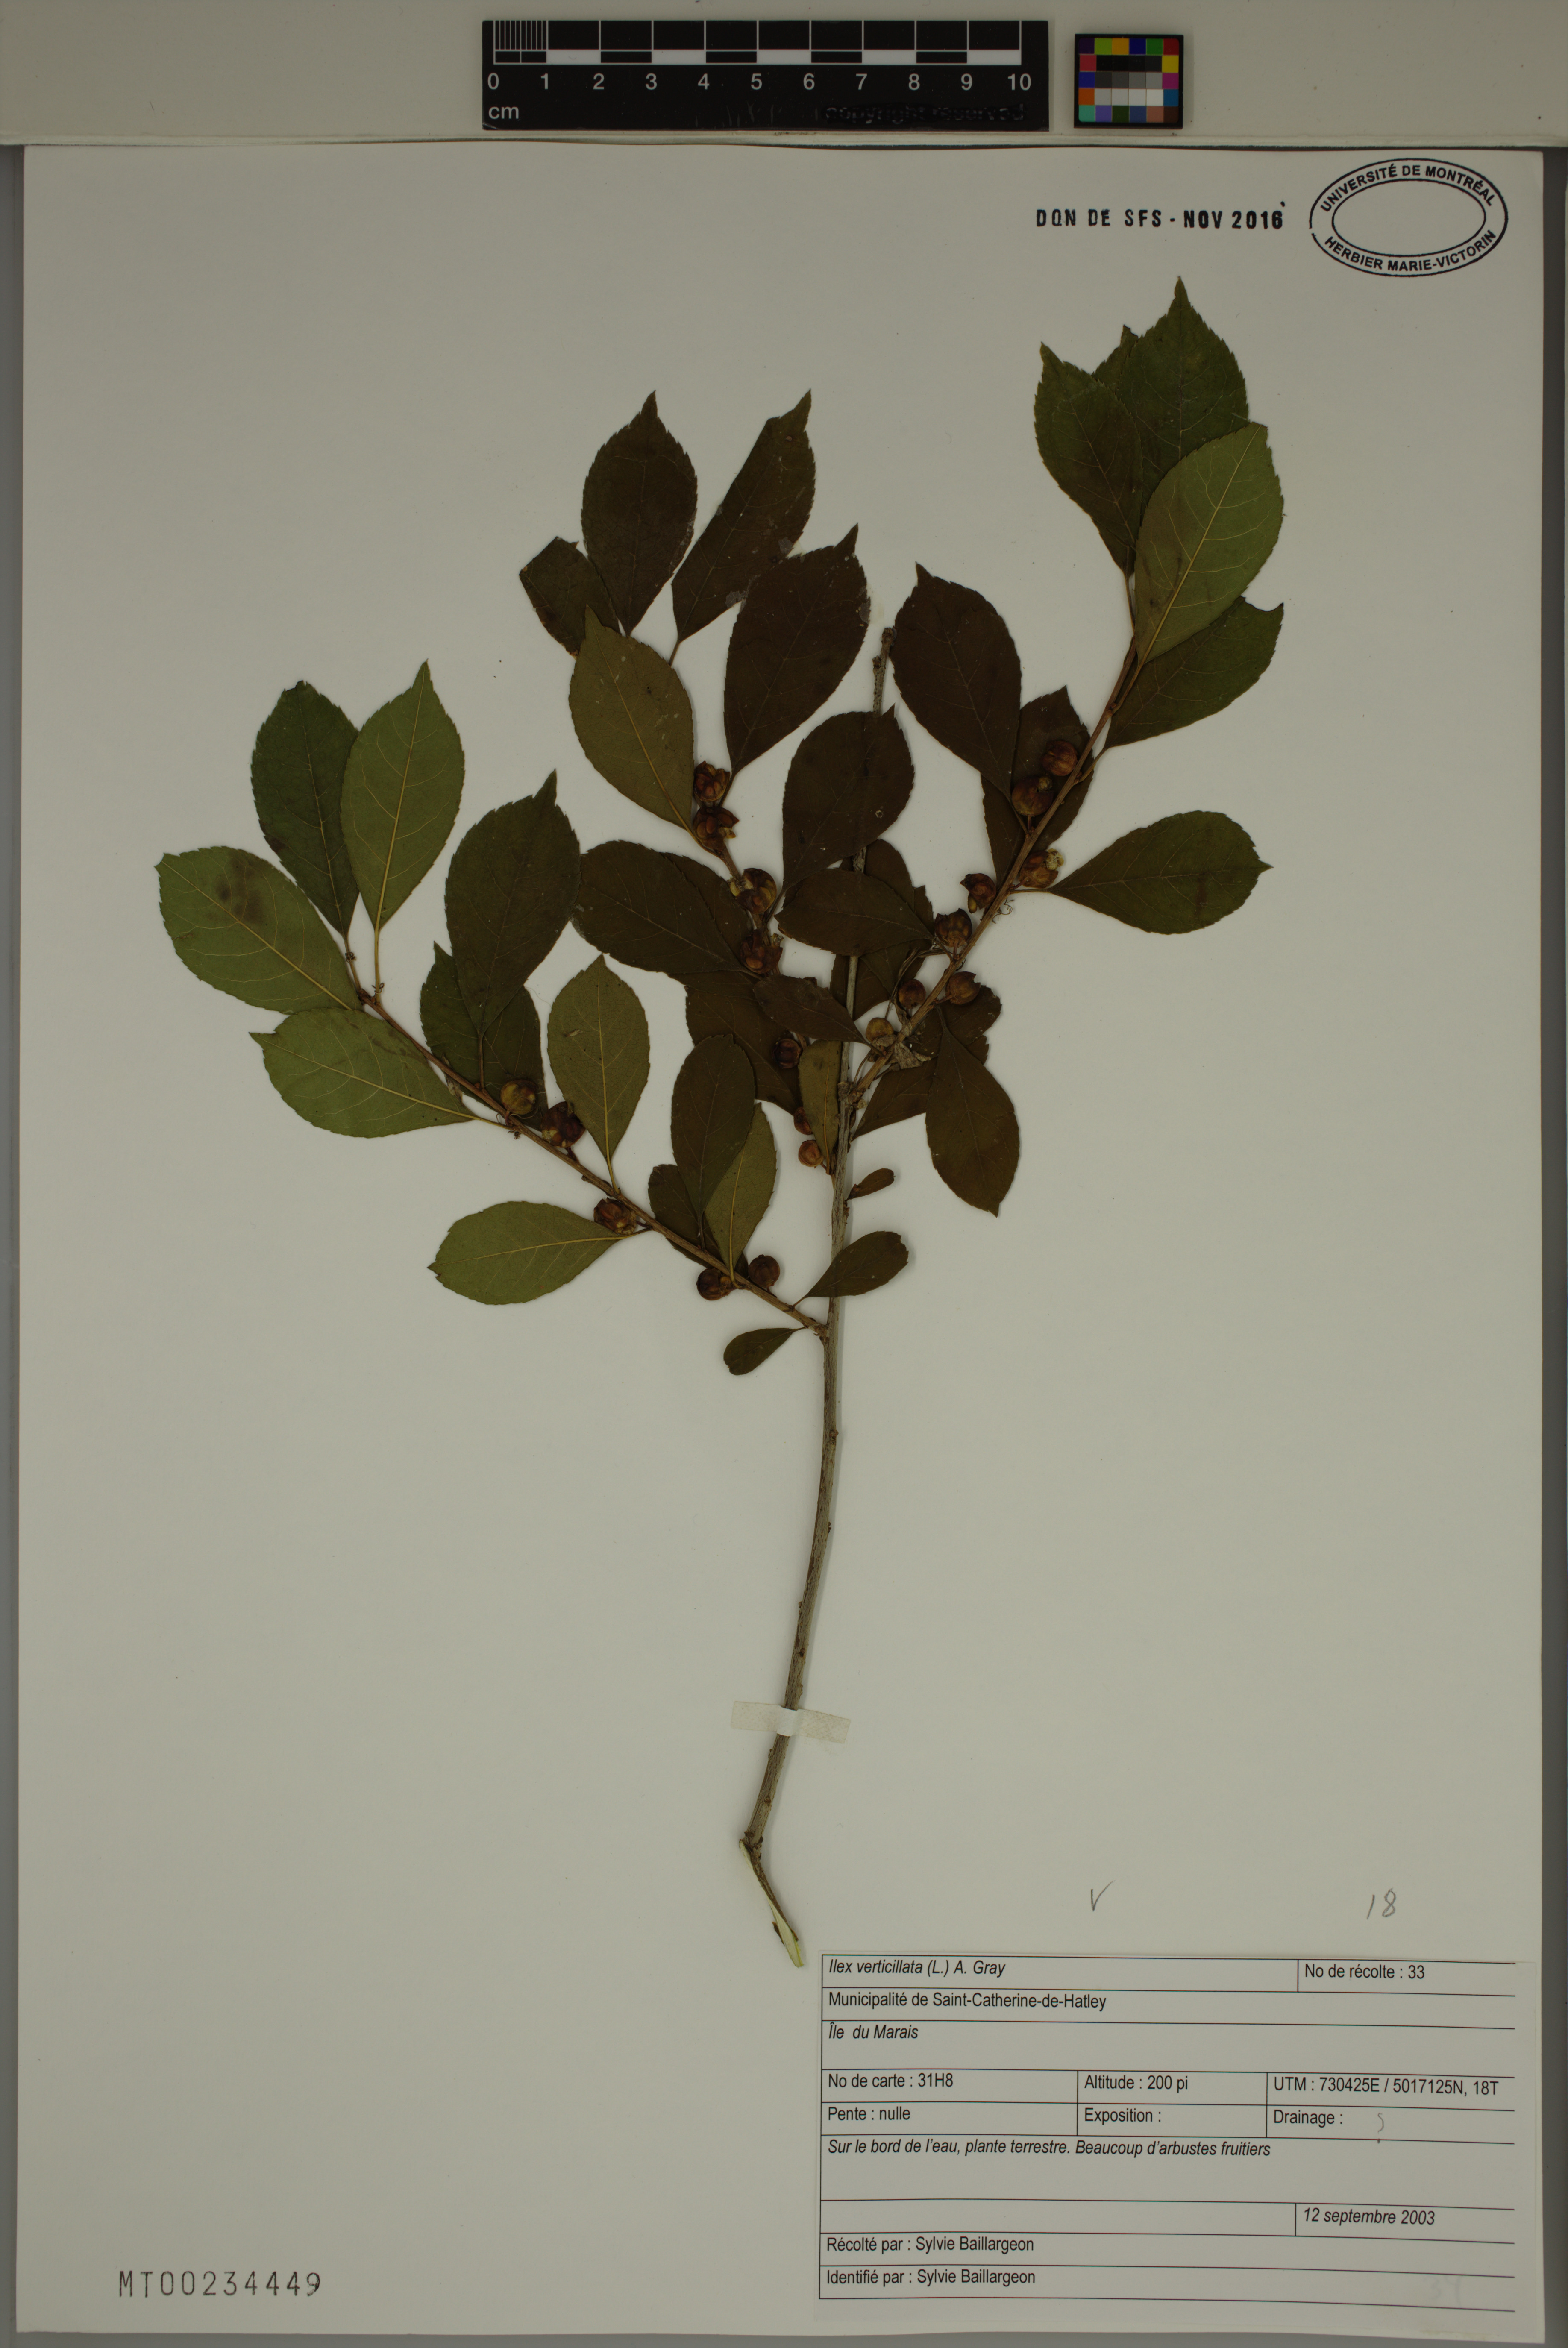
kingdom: Plantae
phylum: Tracheophyta
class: Magnoliopsida
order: Aquifoliales
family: Aquifoliaceae
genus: Ilex
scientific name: Ilex verticillata
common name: Virginia winterberry
